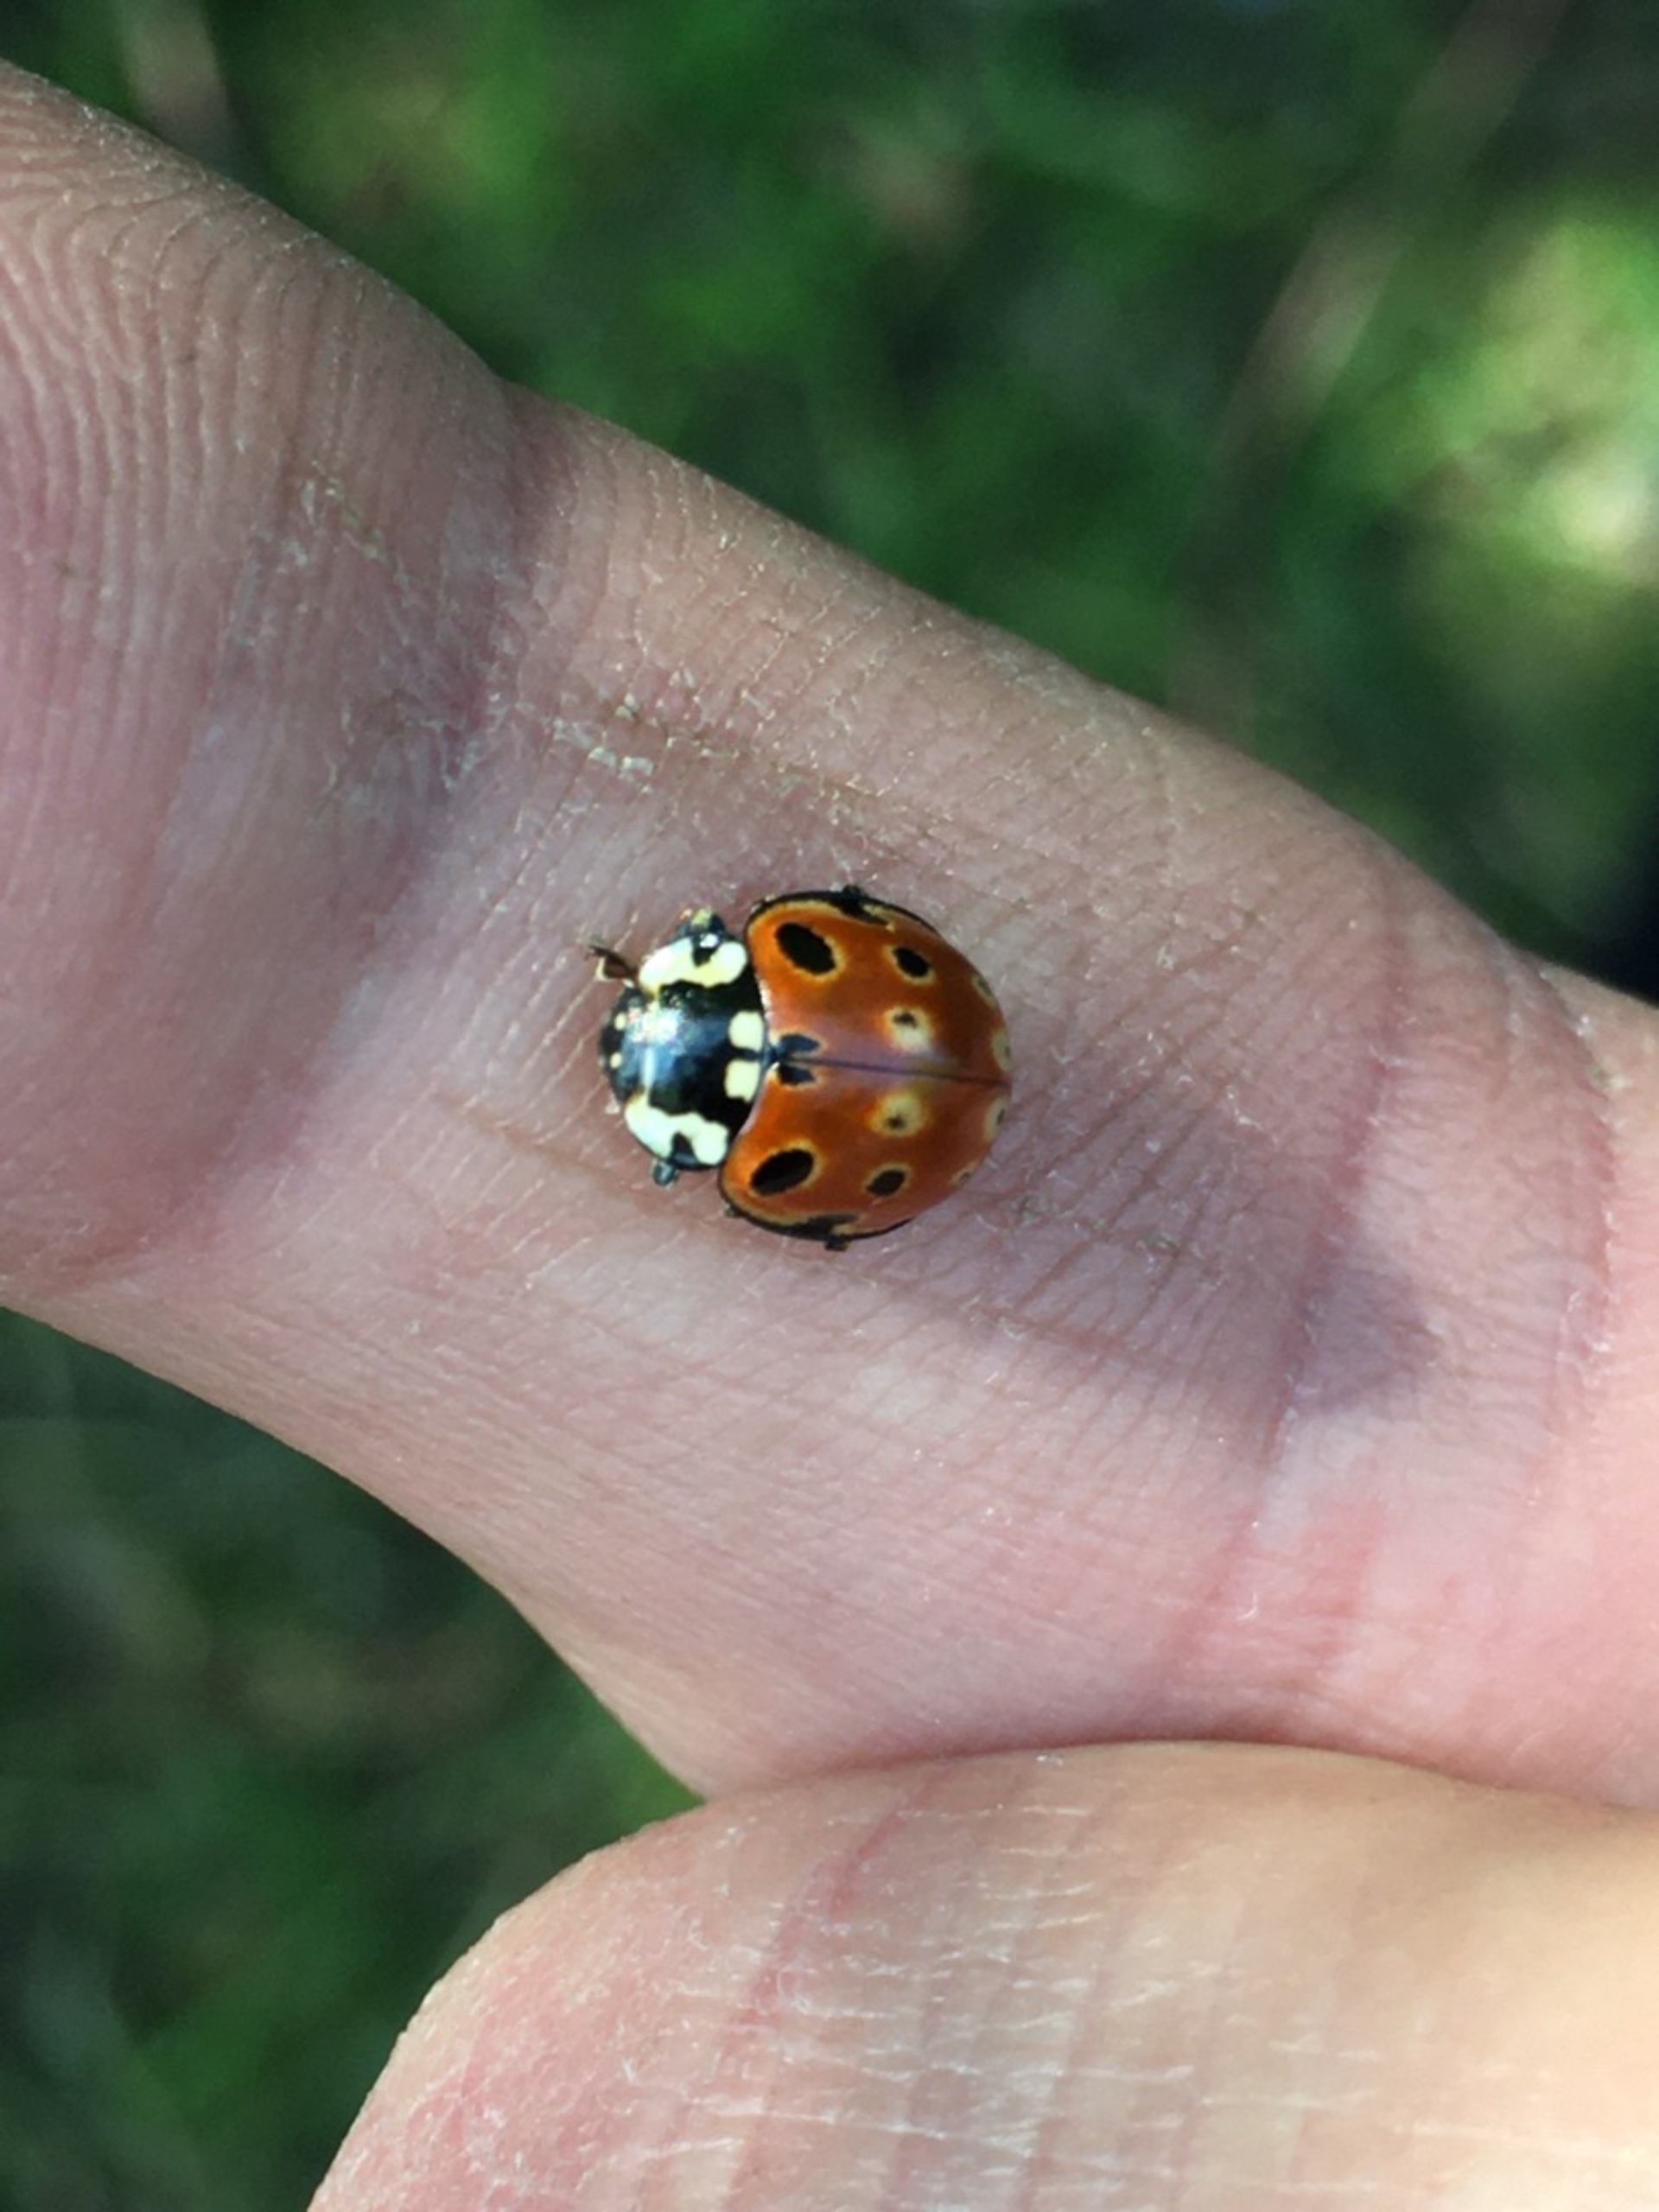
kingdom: Animalia
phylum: Arthropoda
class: Insecta
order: Coleoptera
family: Coccinellidae
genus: Anatis
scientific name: Anatis ocellata
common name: Øjeplettet mariehøne
